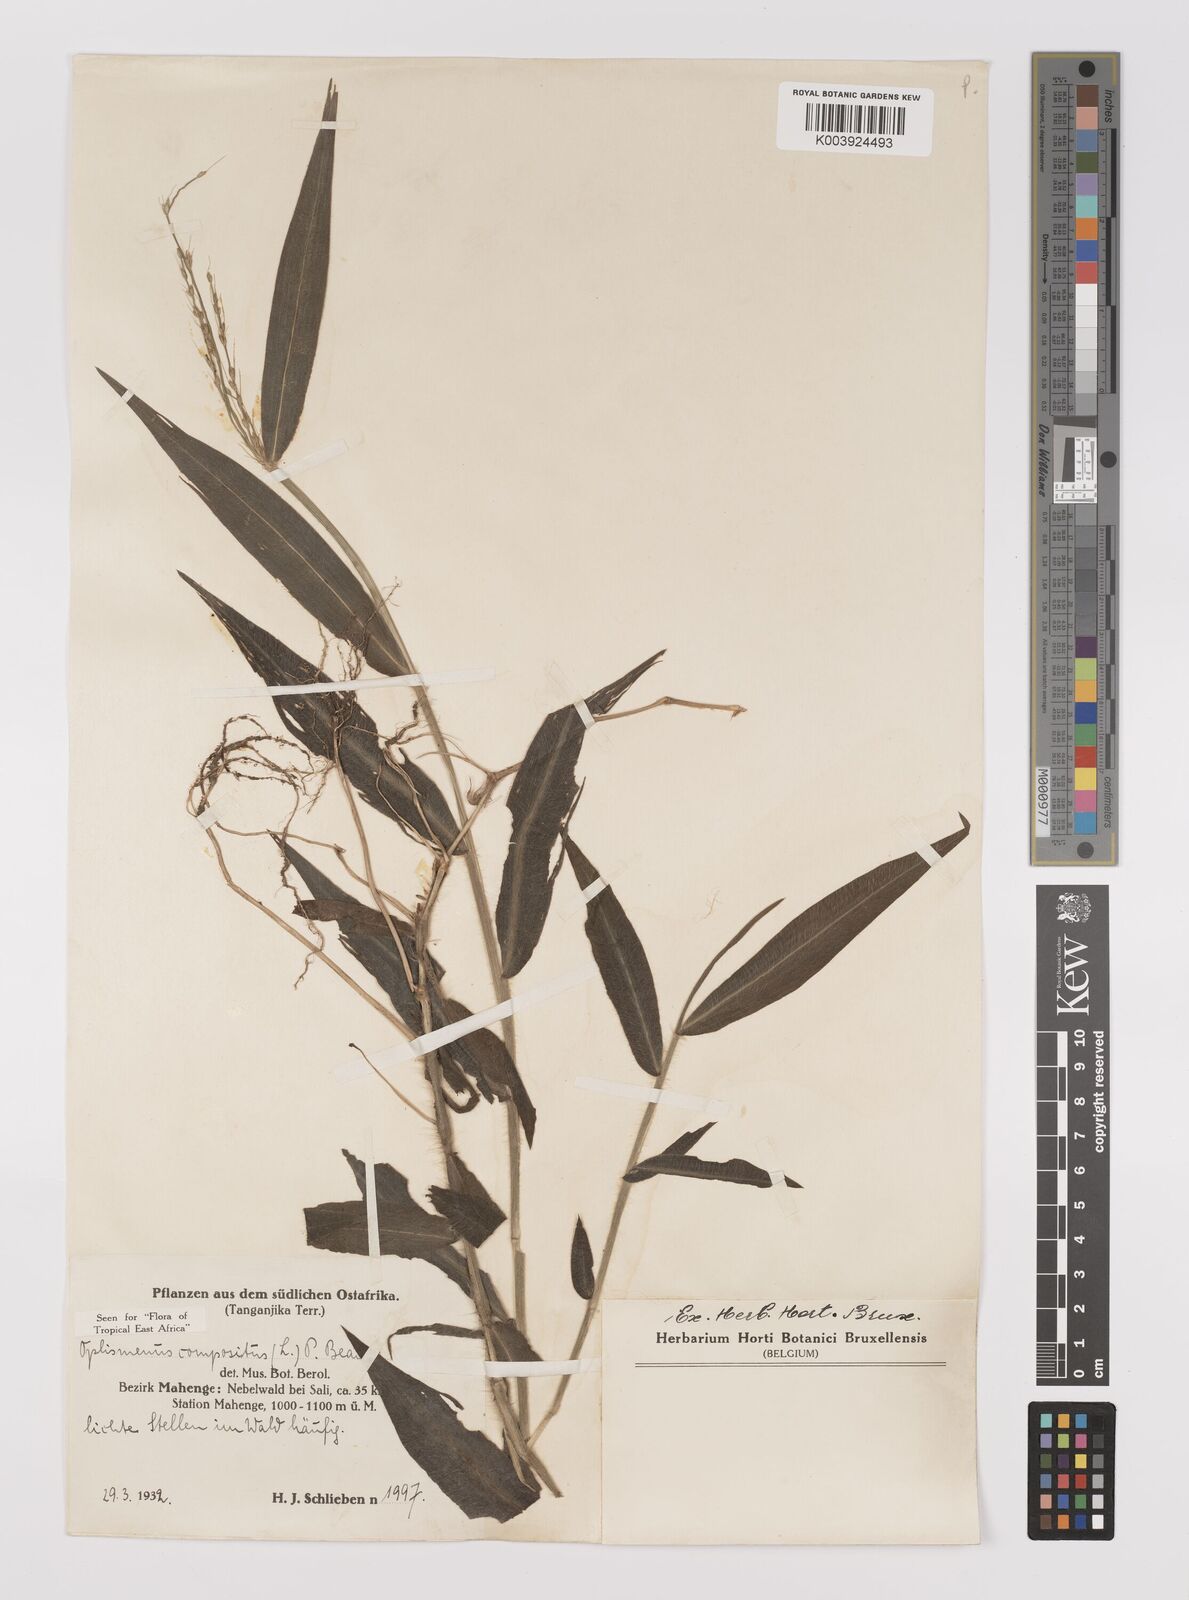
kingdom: Plantae
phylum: Tracheophyta
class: Liliopsida
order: Poales
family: Poaceae
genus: Oplismenus
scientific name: Oplismenus compositus
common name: Running mountain grass
